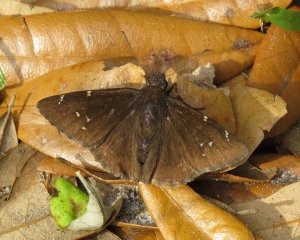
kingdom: Animalia
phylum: Arthropoda
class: Insecta
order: Lepidoptera
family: Hesperiidae
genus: Autochton
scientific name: Autochton
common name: Northern Cloudywing
